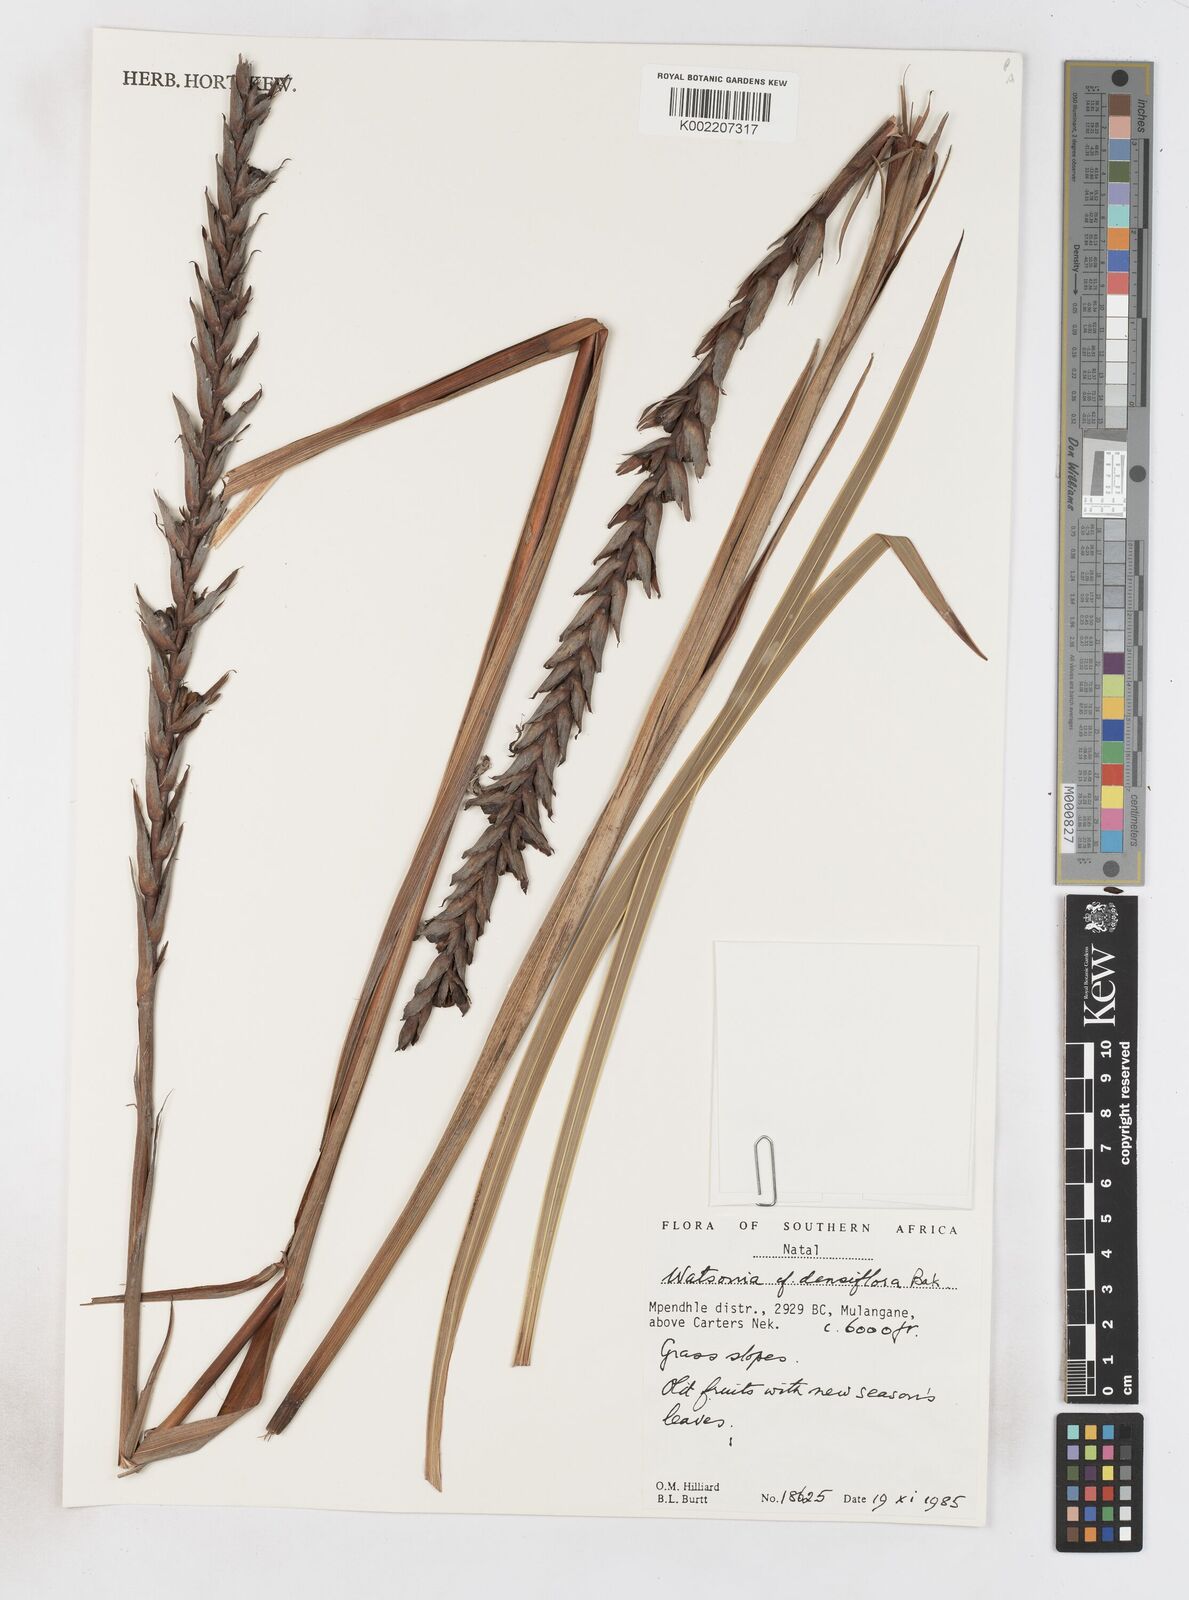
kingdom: Plantae
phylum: Tracheophyta
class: Liliopsida
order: Asparagales
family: Iridaceae
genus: Watsonia
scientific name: Watsonia densiflora
